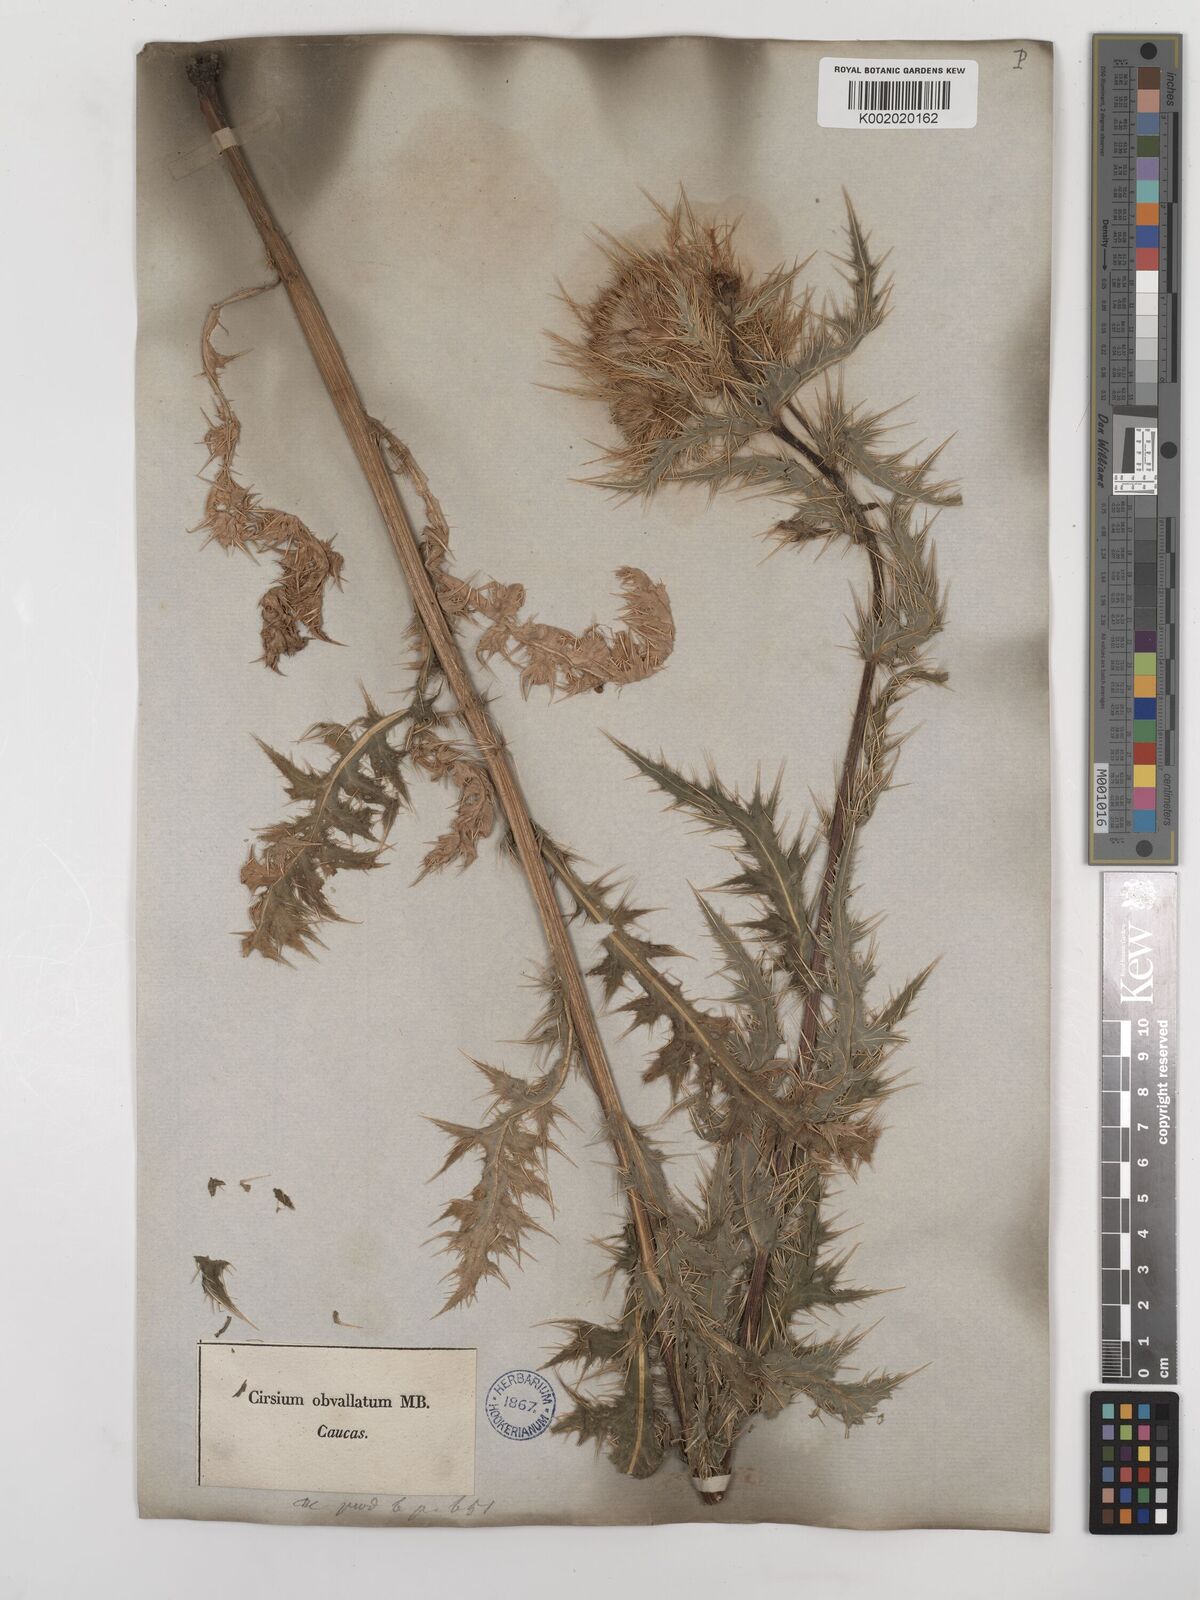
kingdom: Plantae
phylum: Tracheophyta
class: Magnoliopsida
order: Asterales
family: Asteraceae
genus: Cirsium
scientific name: Cirsium obvallatum
